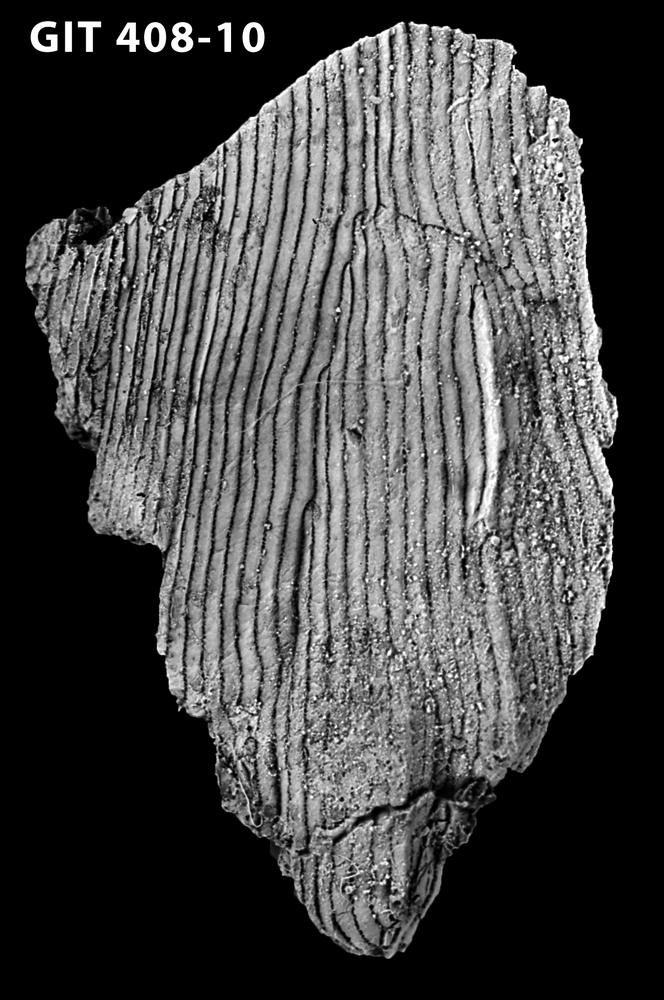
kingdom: Animalia
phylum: Chordata
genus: Archegonaspis
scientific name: Archegonaspis
